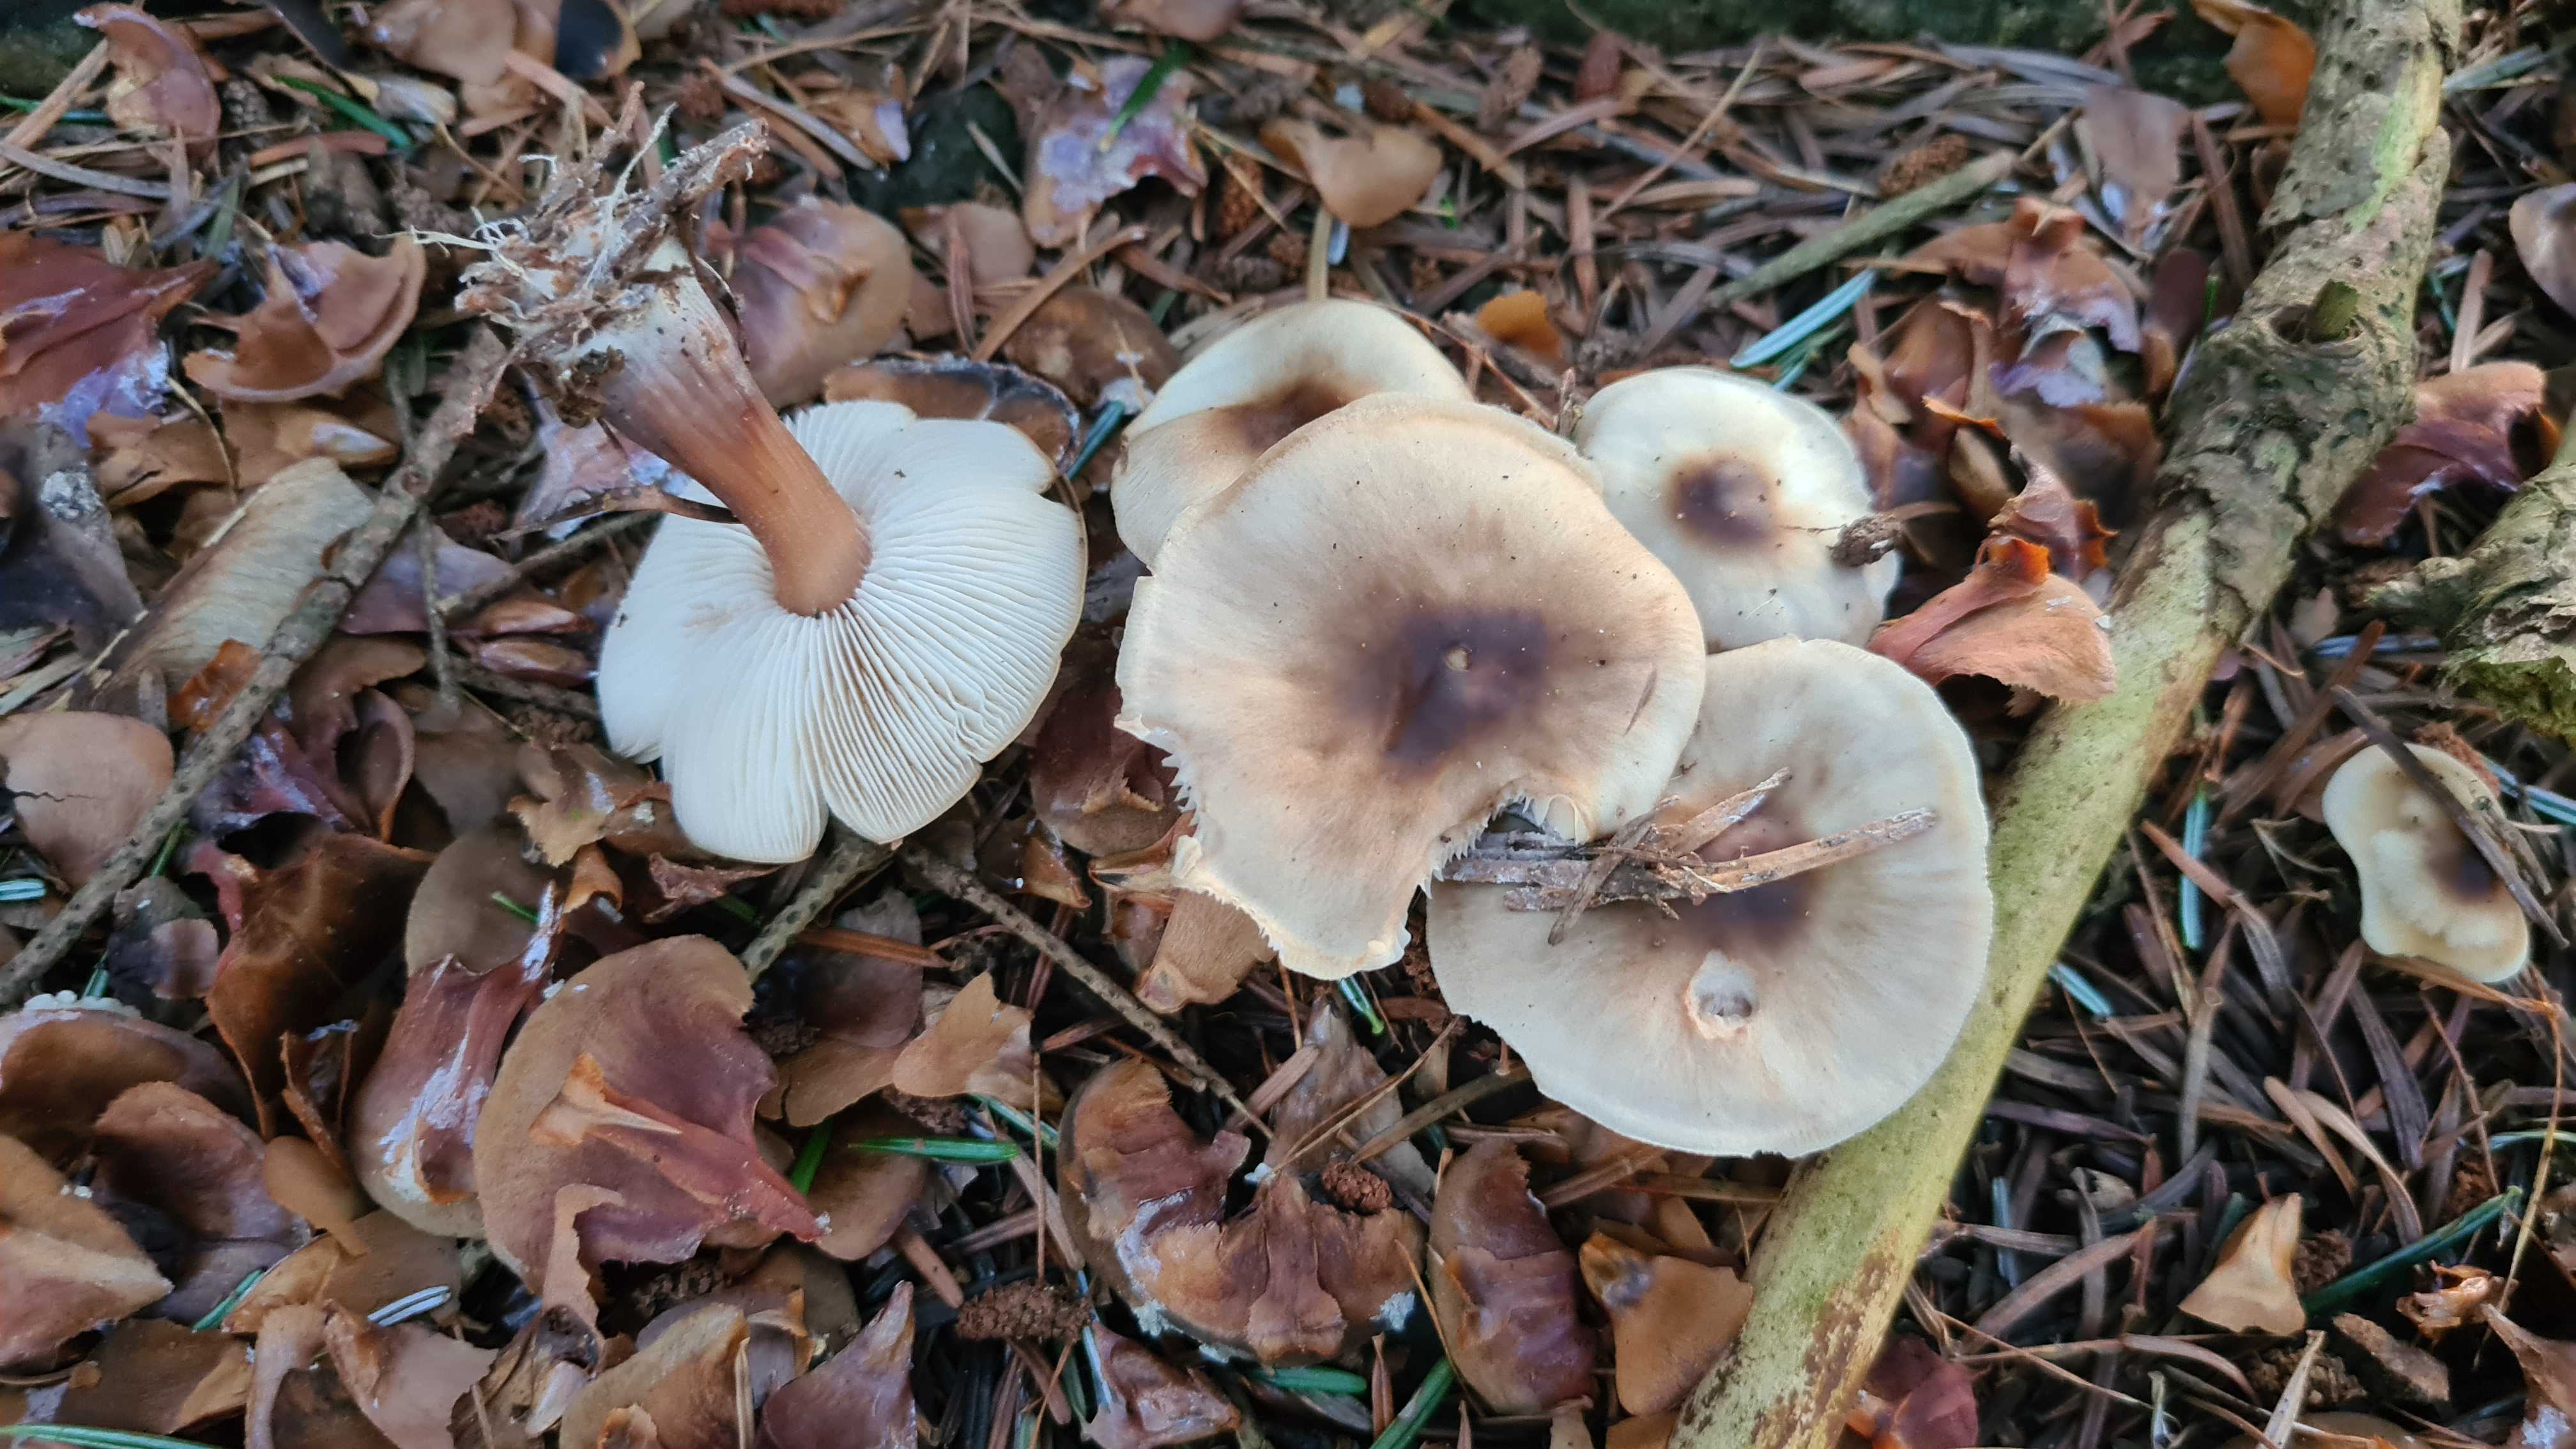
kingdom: Fungi
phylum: Basidiomycota
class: Agaricomycetes
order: Agaricales
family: Omphalotaceae
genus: Rhodocollybia
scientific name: Rhodocollybia asema
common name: horngrå fladhat
